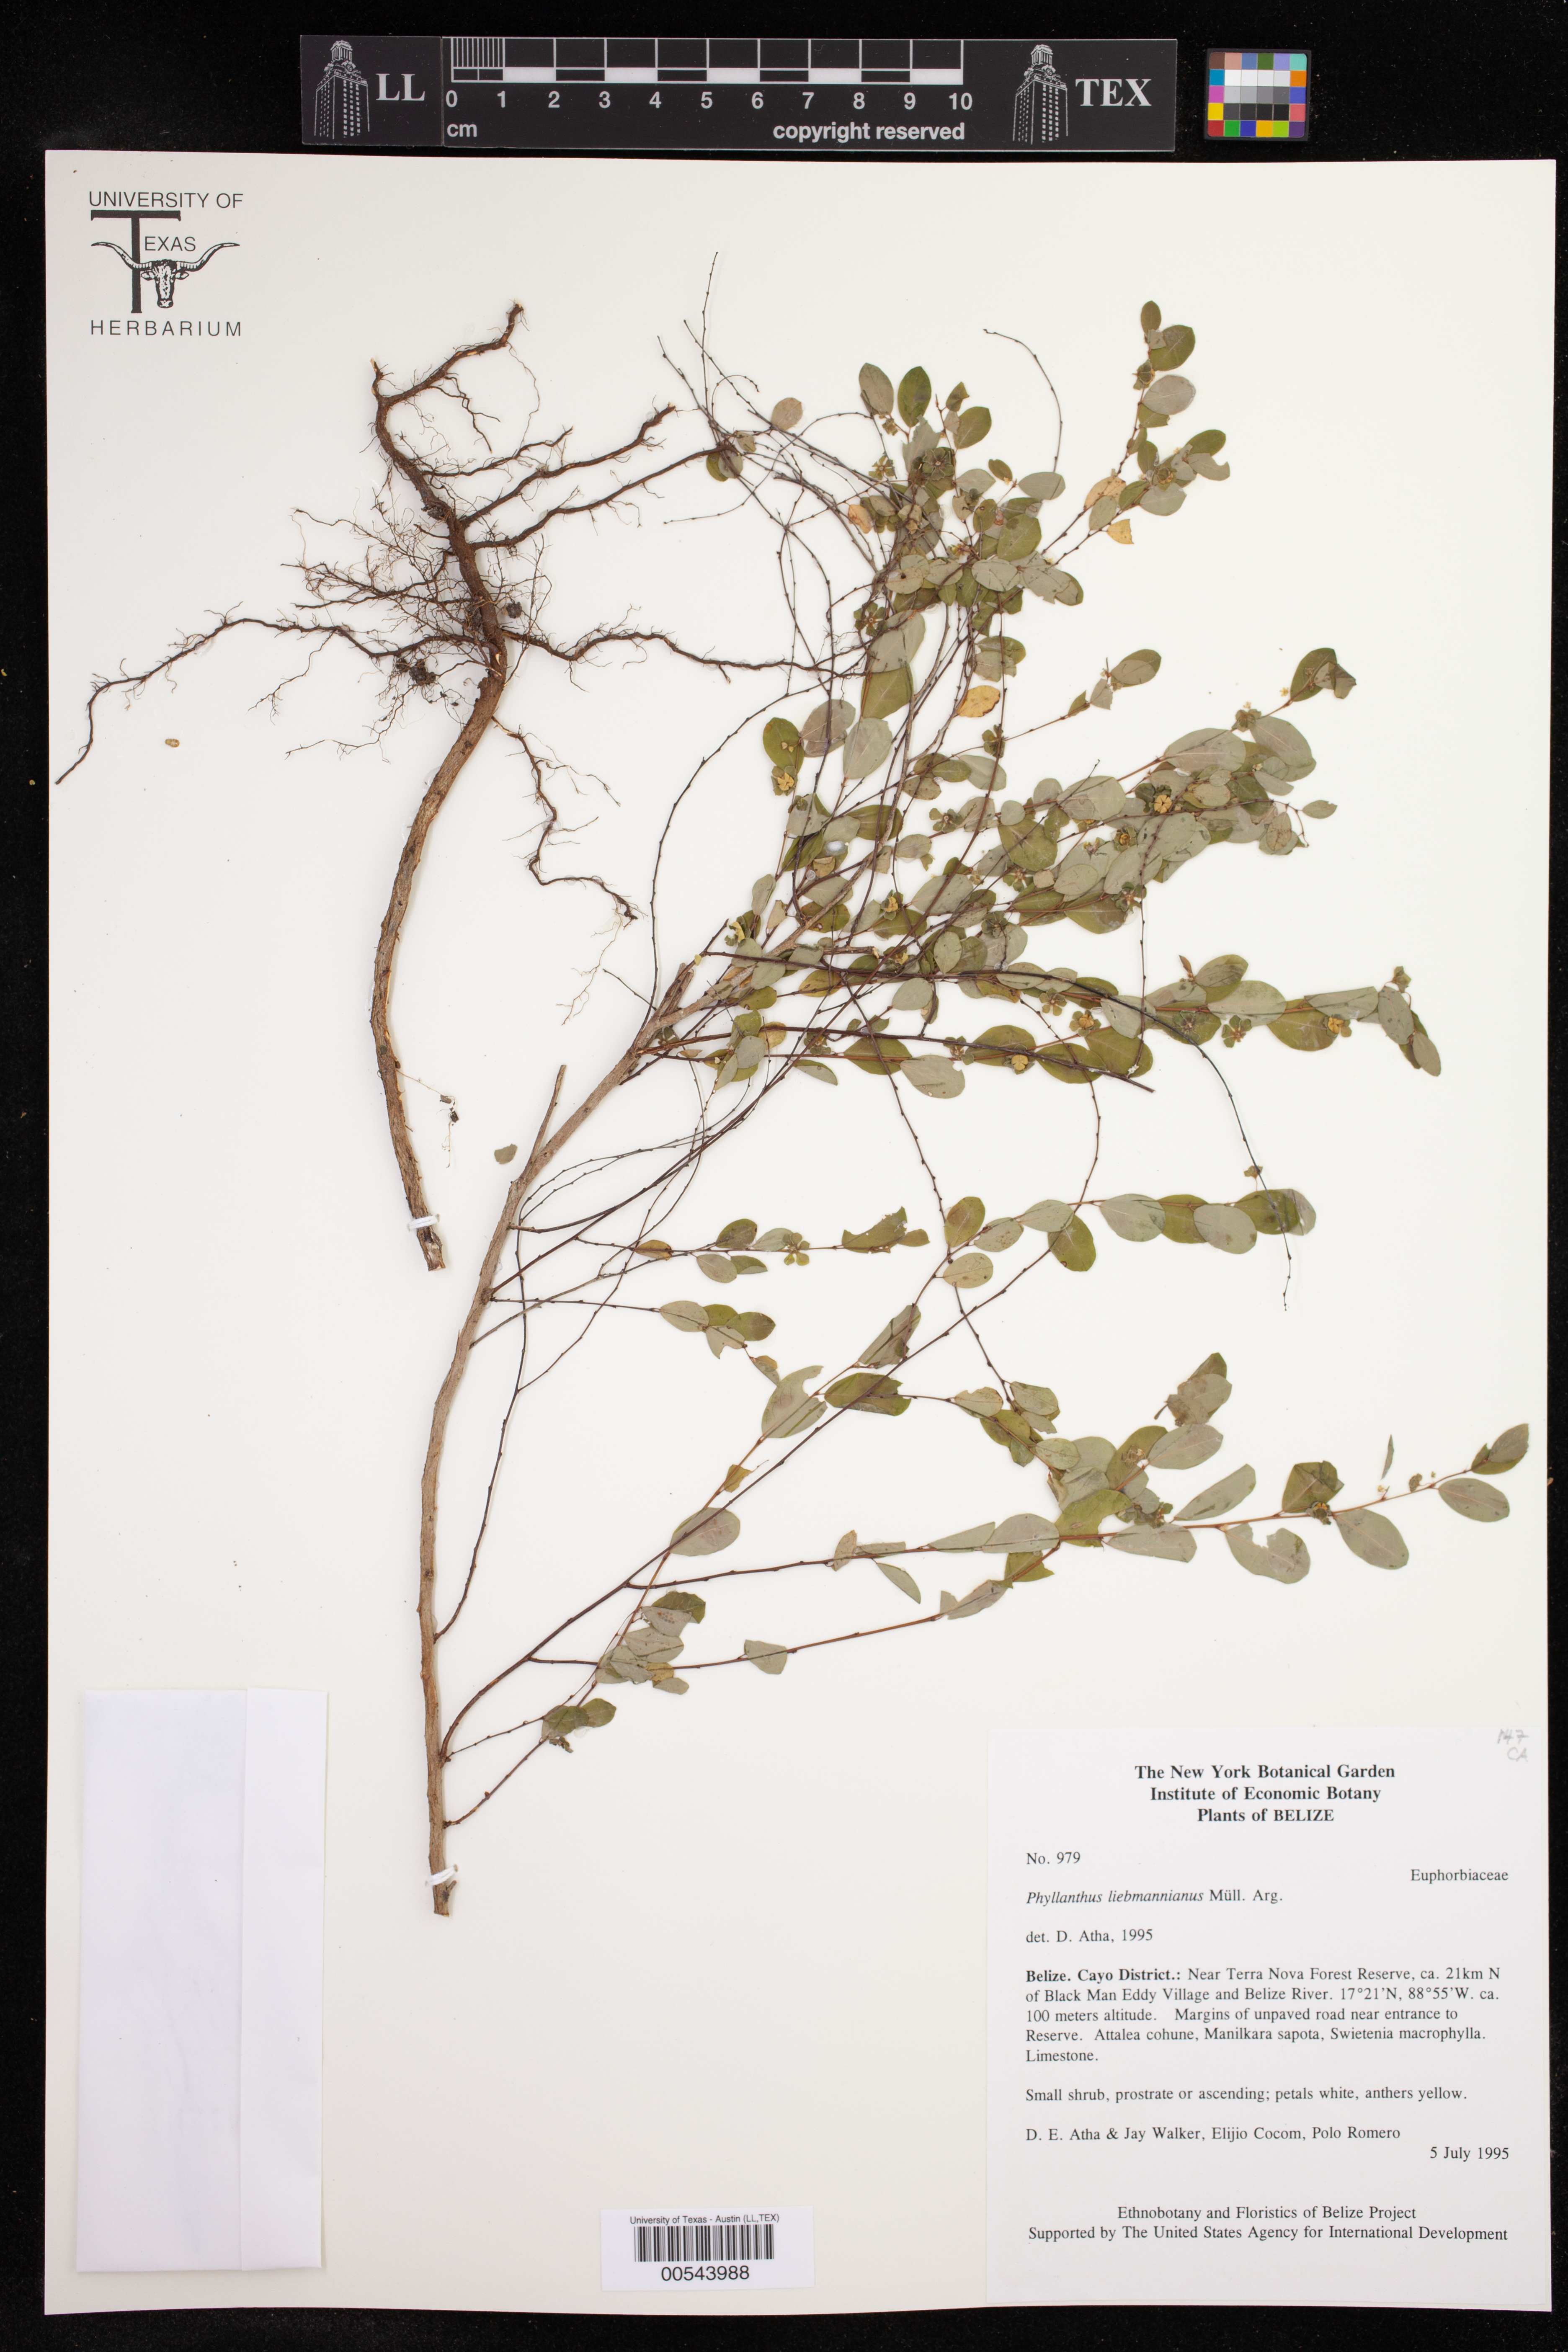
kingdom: Plantae
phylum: Tracheophyta
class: Magnoliopsida
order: Malpighiales
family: Phyllanthaceae
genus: Phyllanthus
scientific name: Phyllanthus liebmannianus
